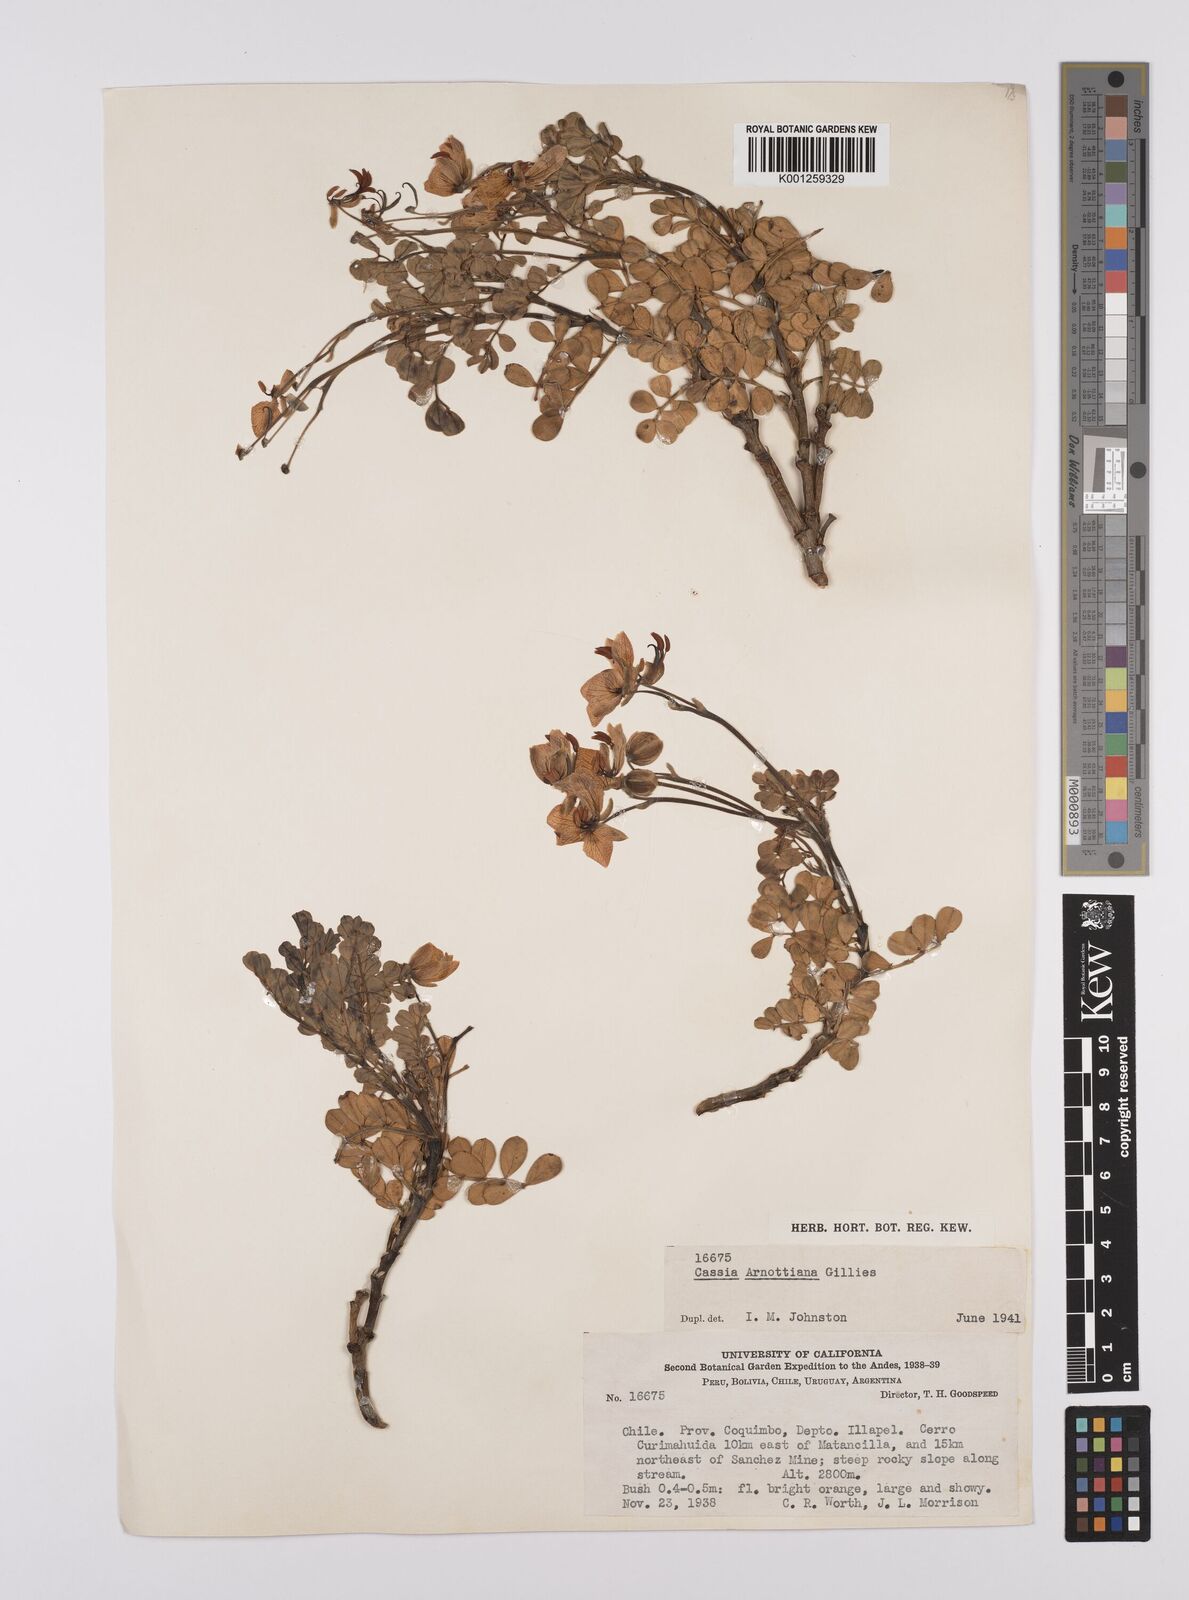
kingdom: Plantae
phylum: Tracheophyta
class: Magnoliopsida
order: Fabales
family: Fabaceae
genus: Senna
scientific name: Senna arnottiana
